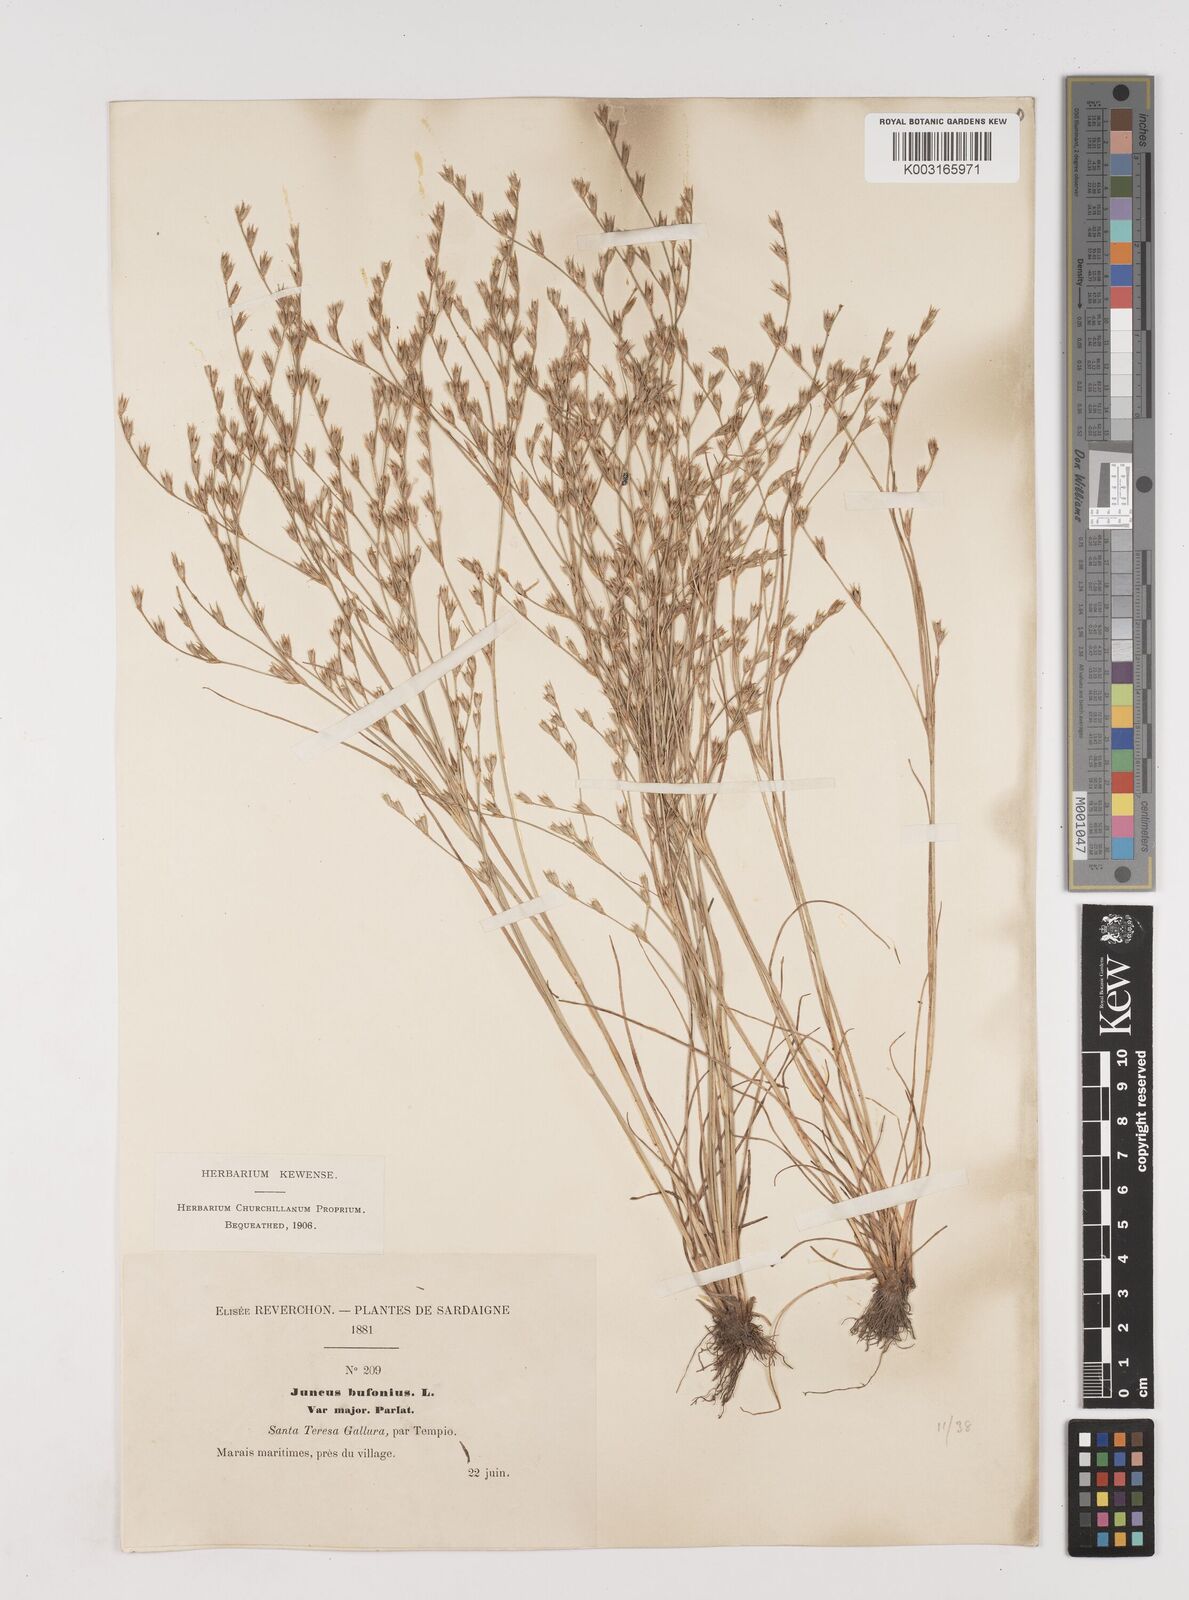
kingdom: Plantae
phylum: Tracheophyta
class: Liliopsida
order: Poales
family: Juncaceae
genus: Juncus
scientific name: Juncus bufonius
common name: Toad rush
